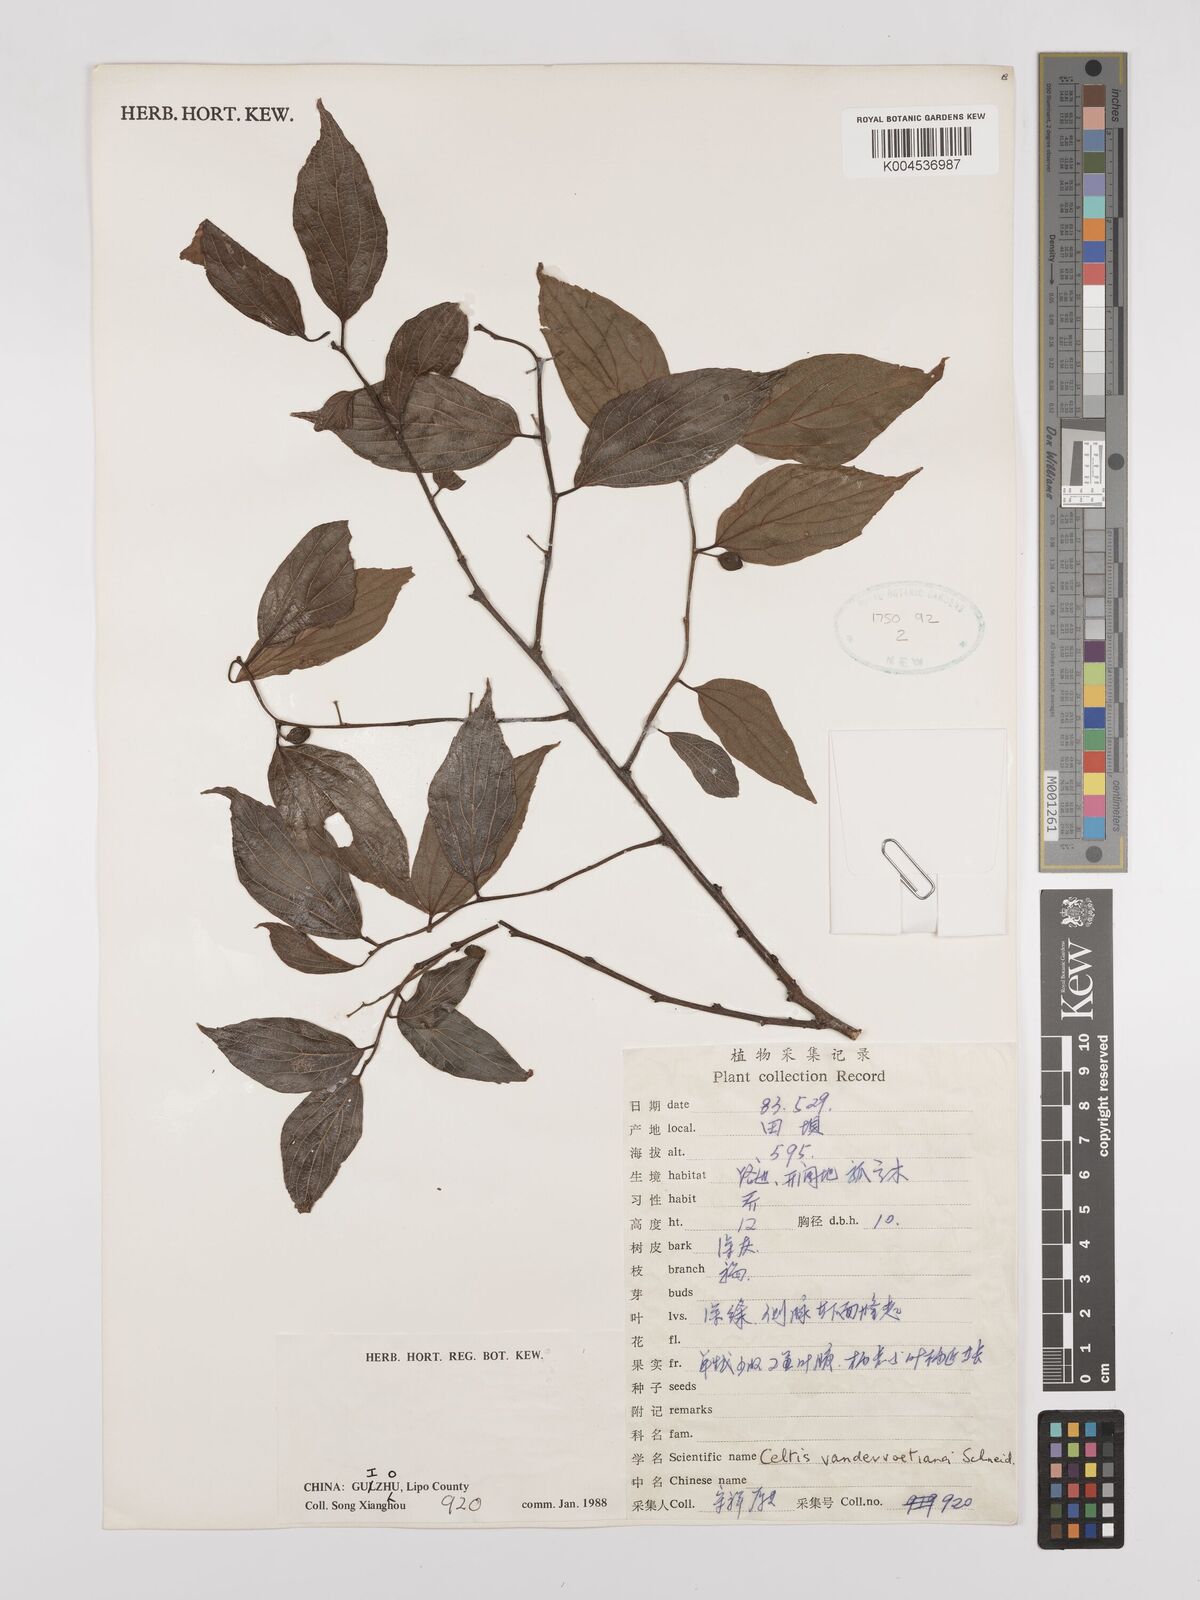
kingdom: Plantae
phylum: Tracheophyta
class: Magnoliopsida
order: Rosales
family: Cannabaceae
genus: Celtis
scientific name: Celtis tetrandra
